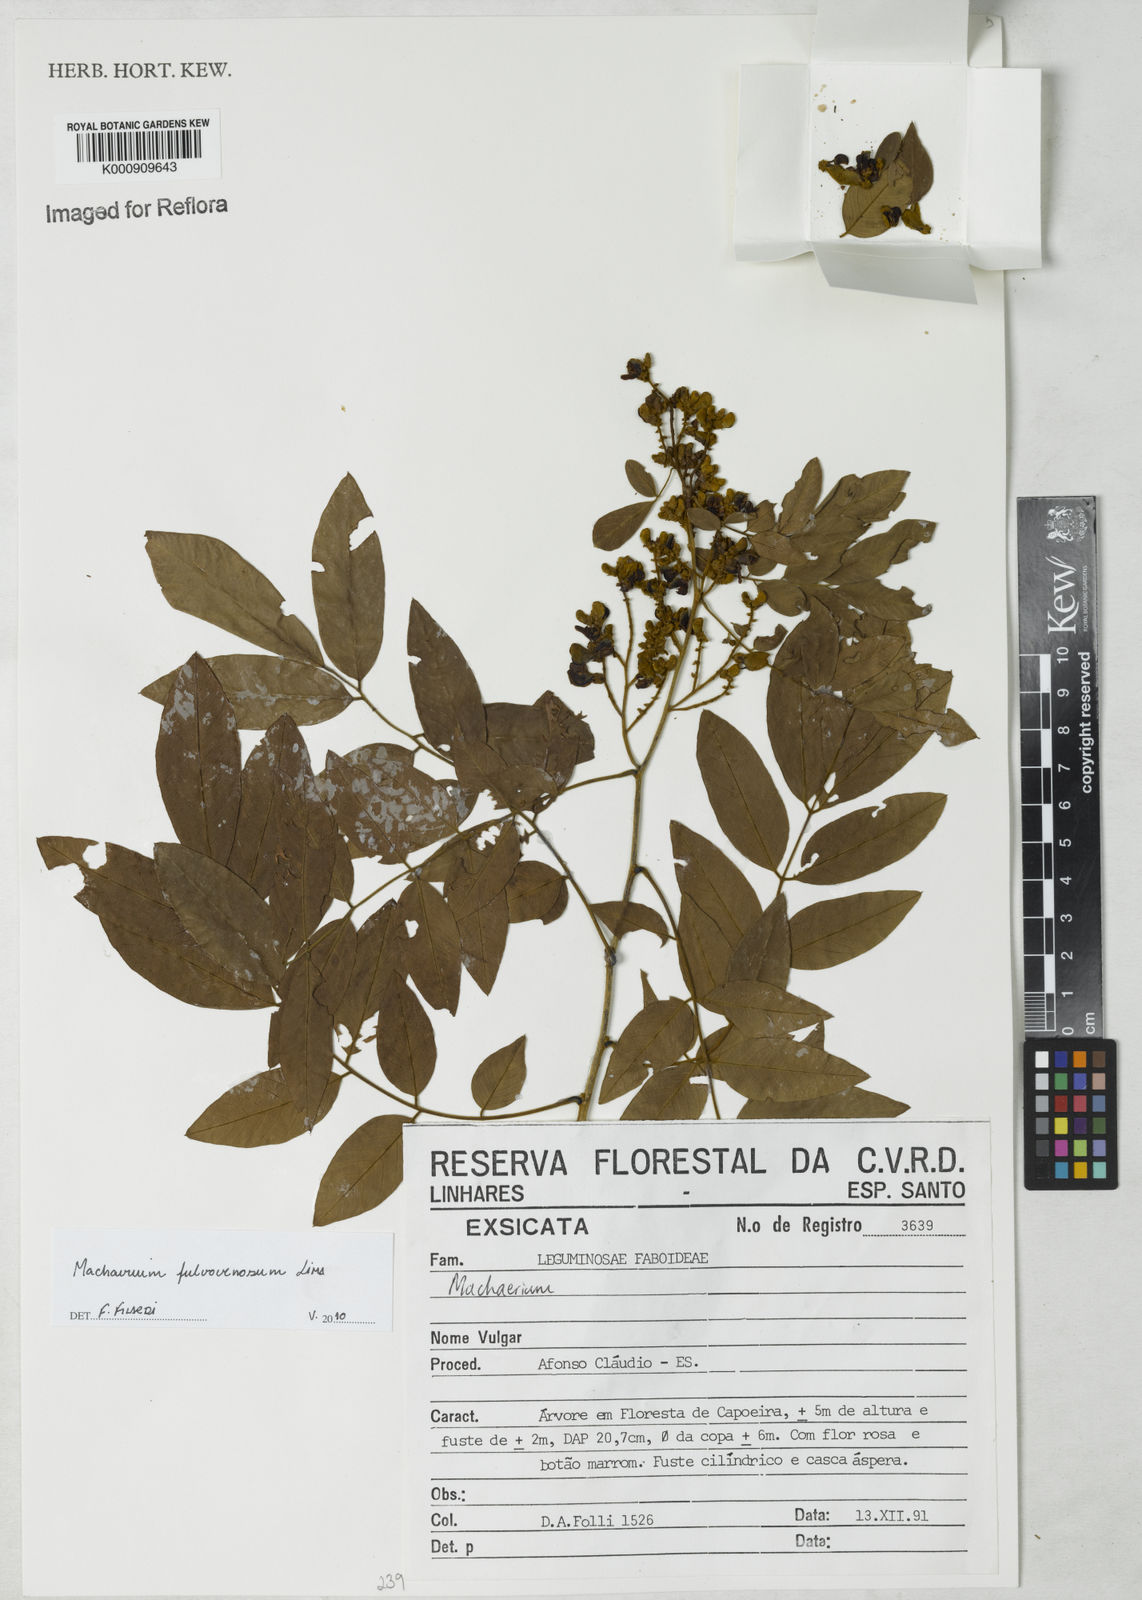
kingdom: Plantae
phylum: Tracheophyta
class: Magnoliopsida
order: Fabales
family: Fabaceae
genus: Machaerium
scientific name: Machaerium fulvovenosum
